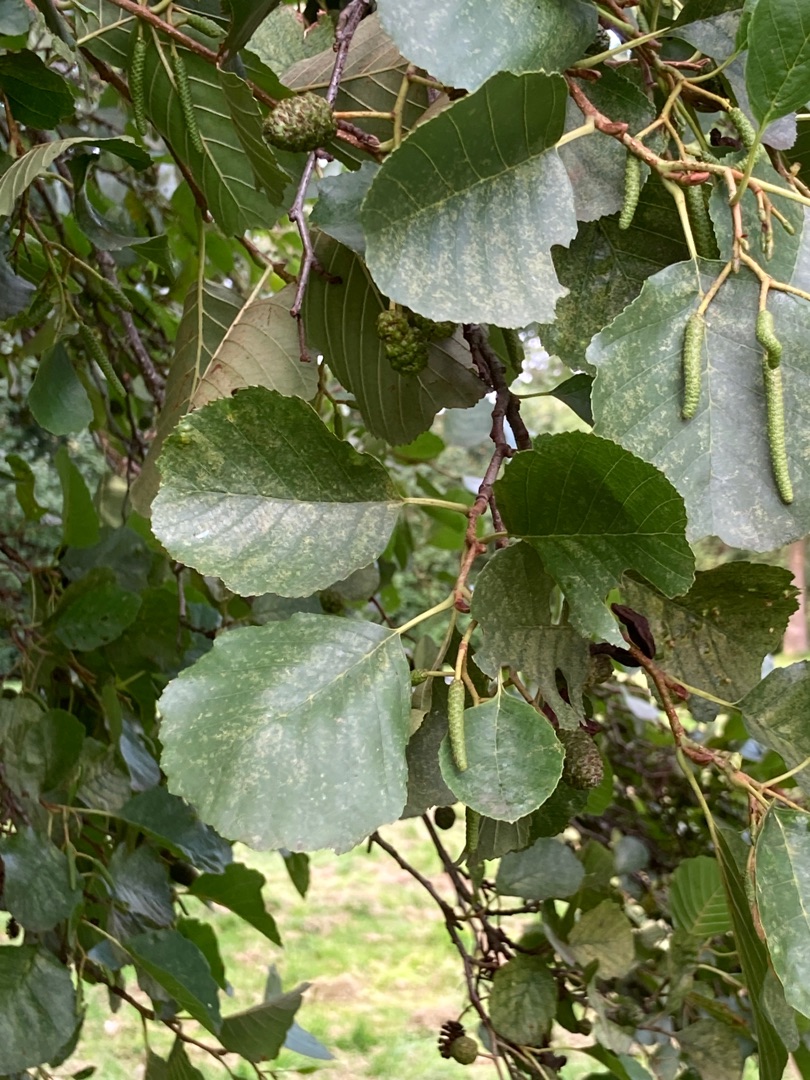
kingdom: Plantae
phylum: Tracheophyta
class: Magnoliopsida
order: Fagales
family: Betulaceae
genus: Alnus
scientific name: Alnus glutinosa
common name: Rød-el
